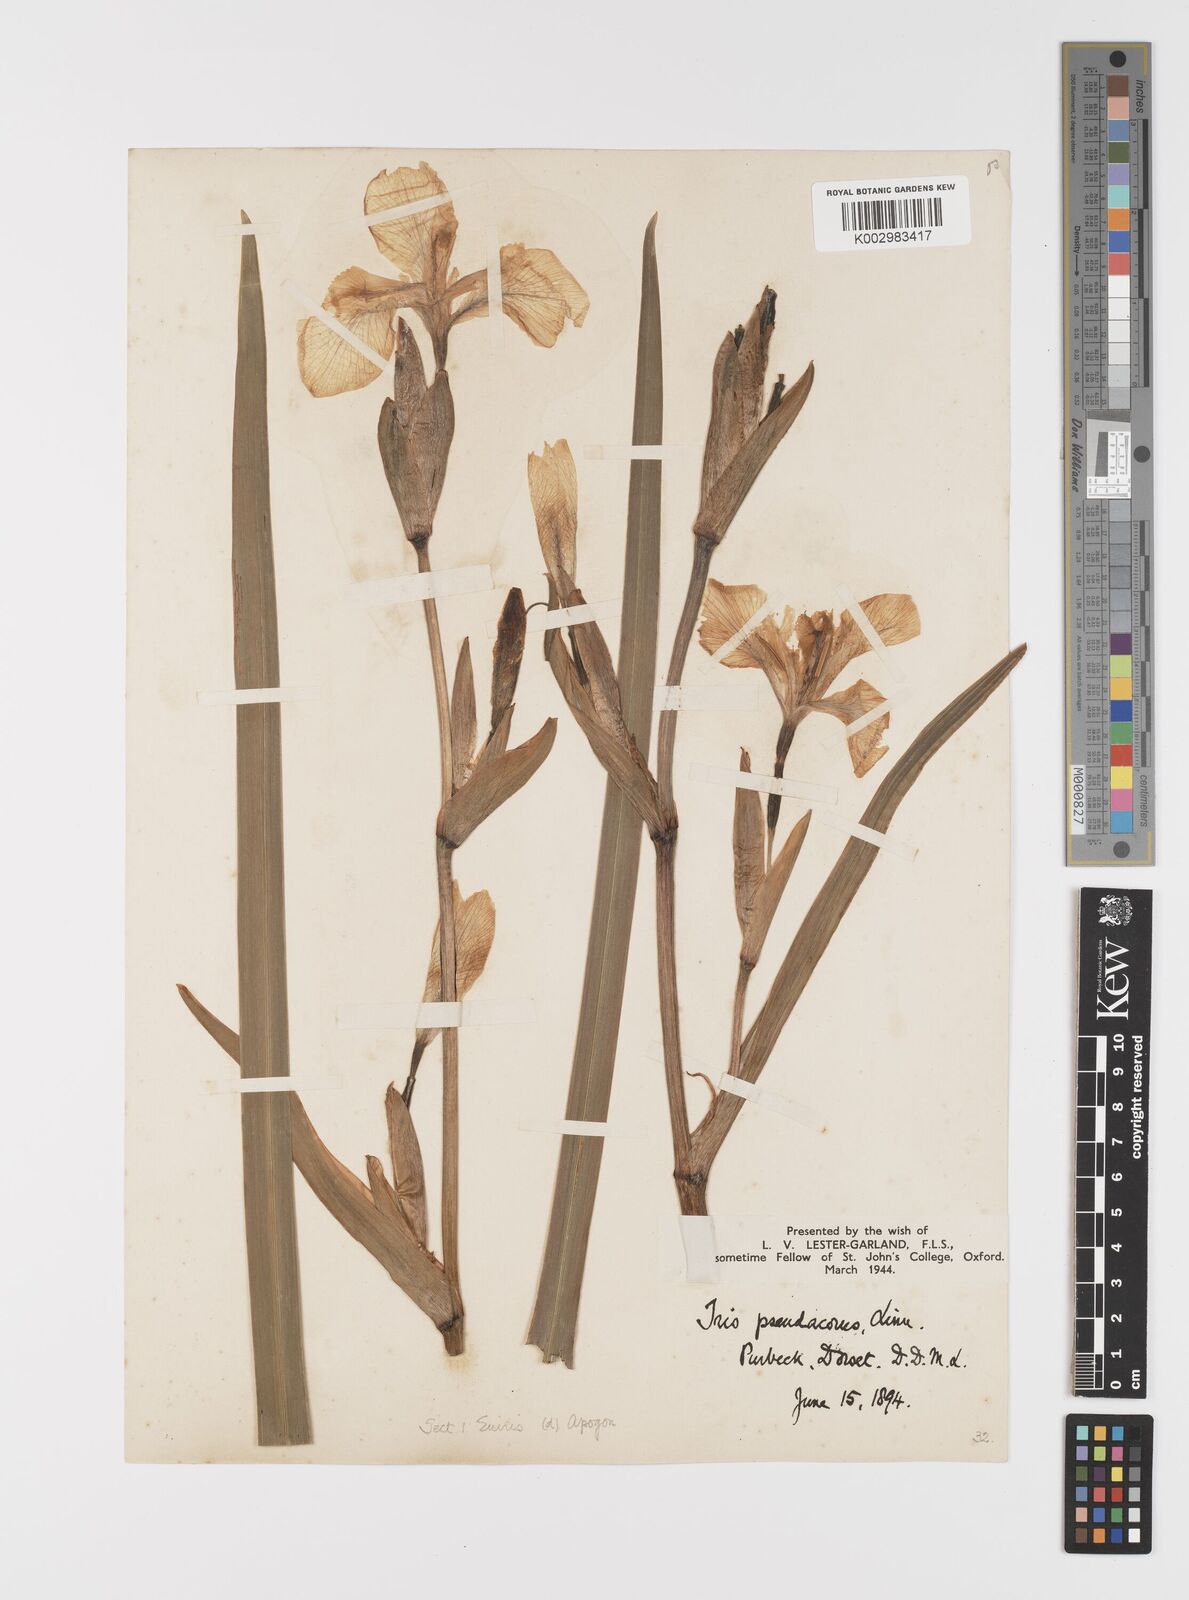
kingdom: Plantae
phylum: Tracheophyta
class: Liliopsida
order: Asparagales
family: Iridaceae
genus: Iris
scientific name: Iris pseudacorus
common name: Yellow flag
